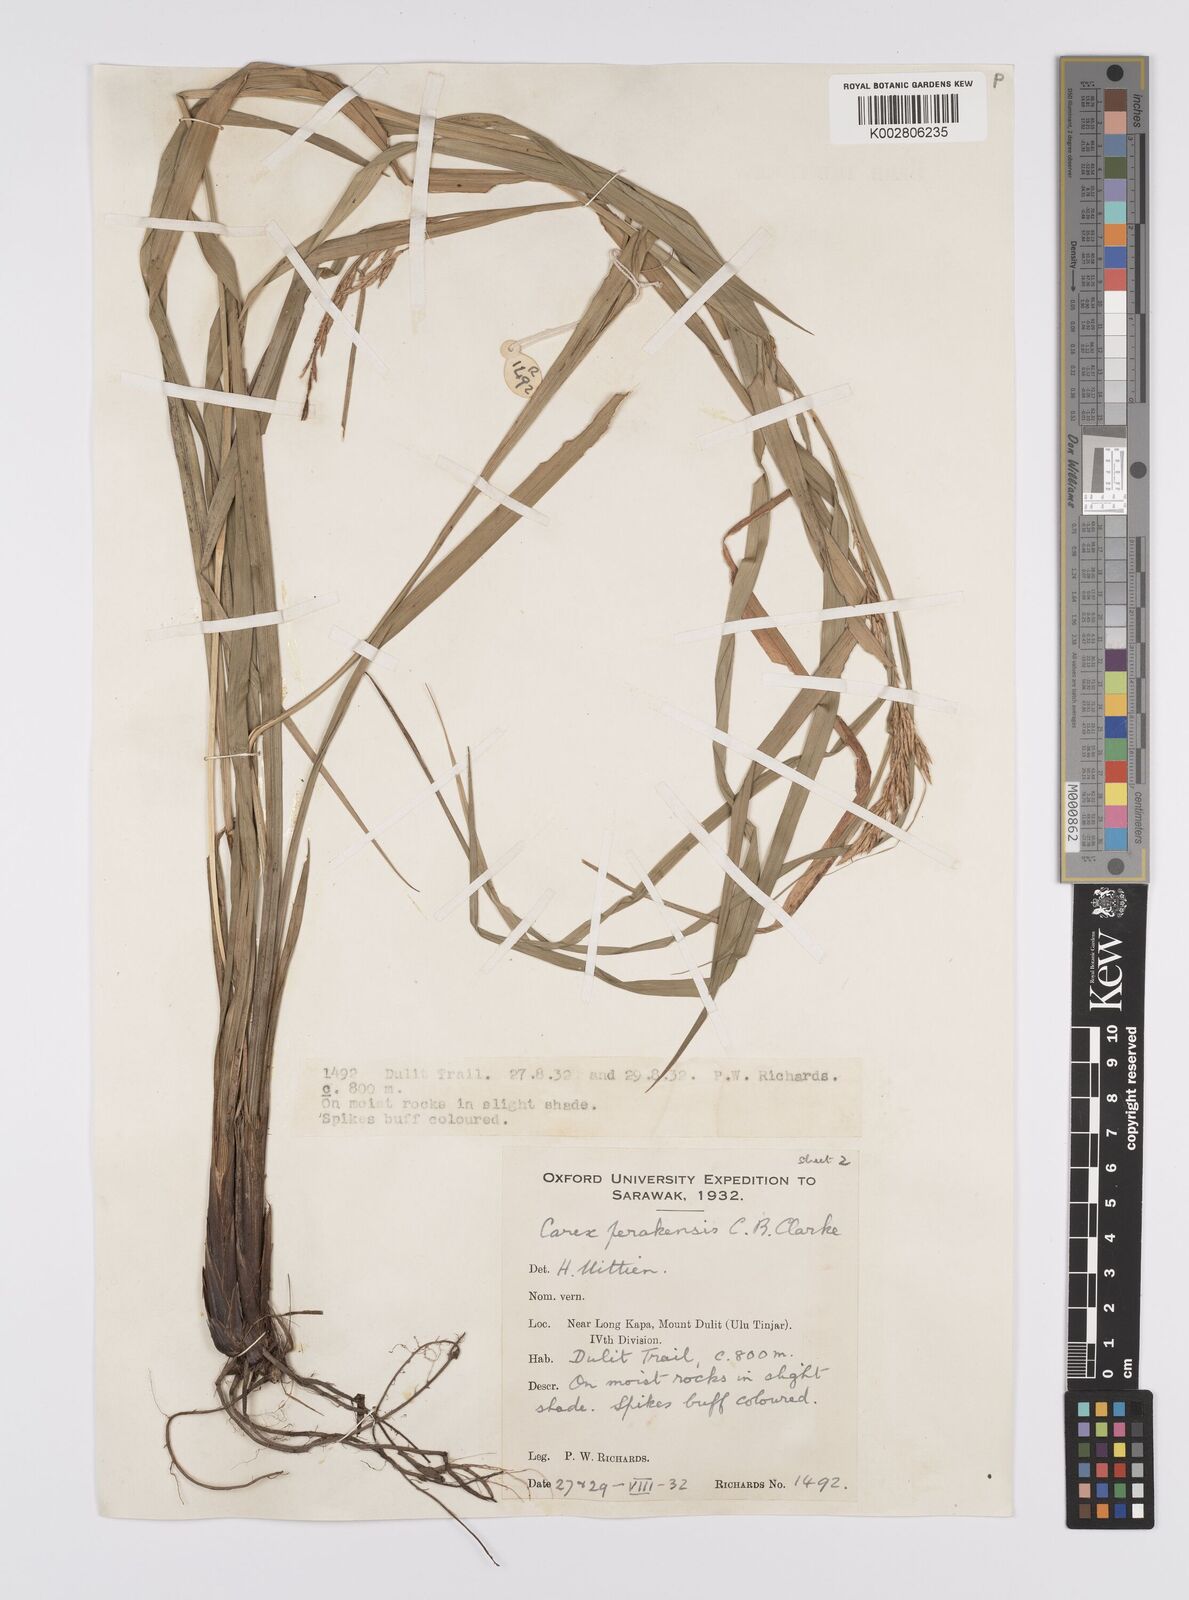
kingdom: Plantae
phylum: Tracheophyta
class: Liliopsida
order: Poales
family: Cyperaceae
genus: Carex
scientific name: Carex perakensis
